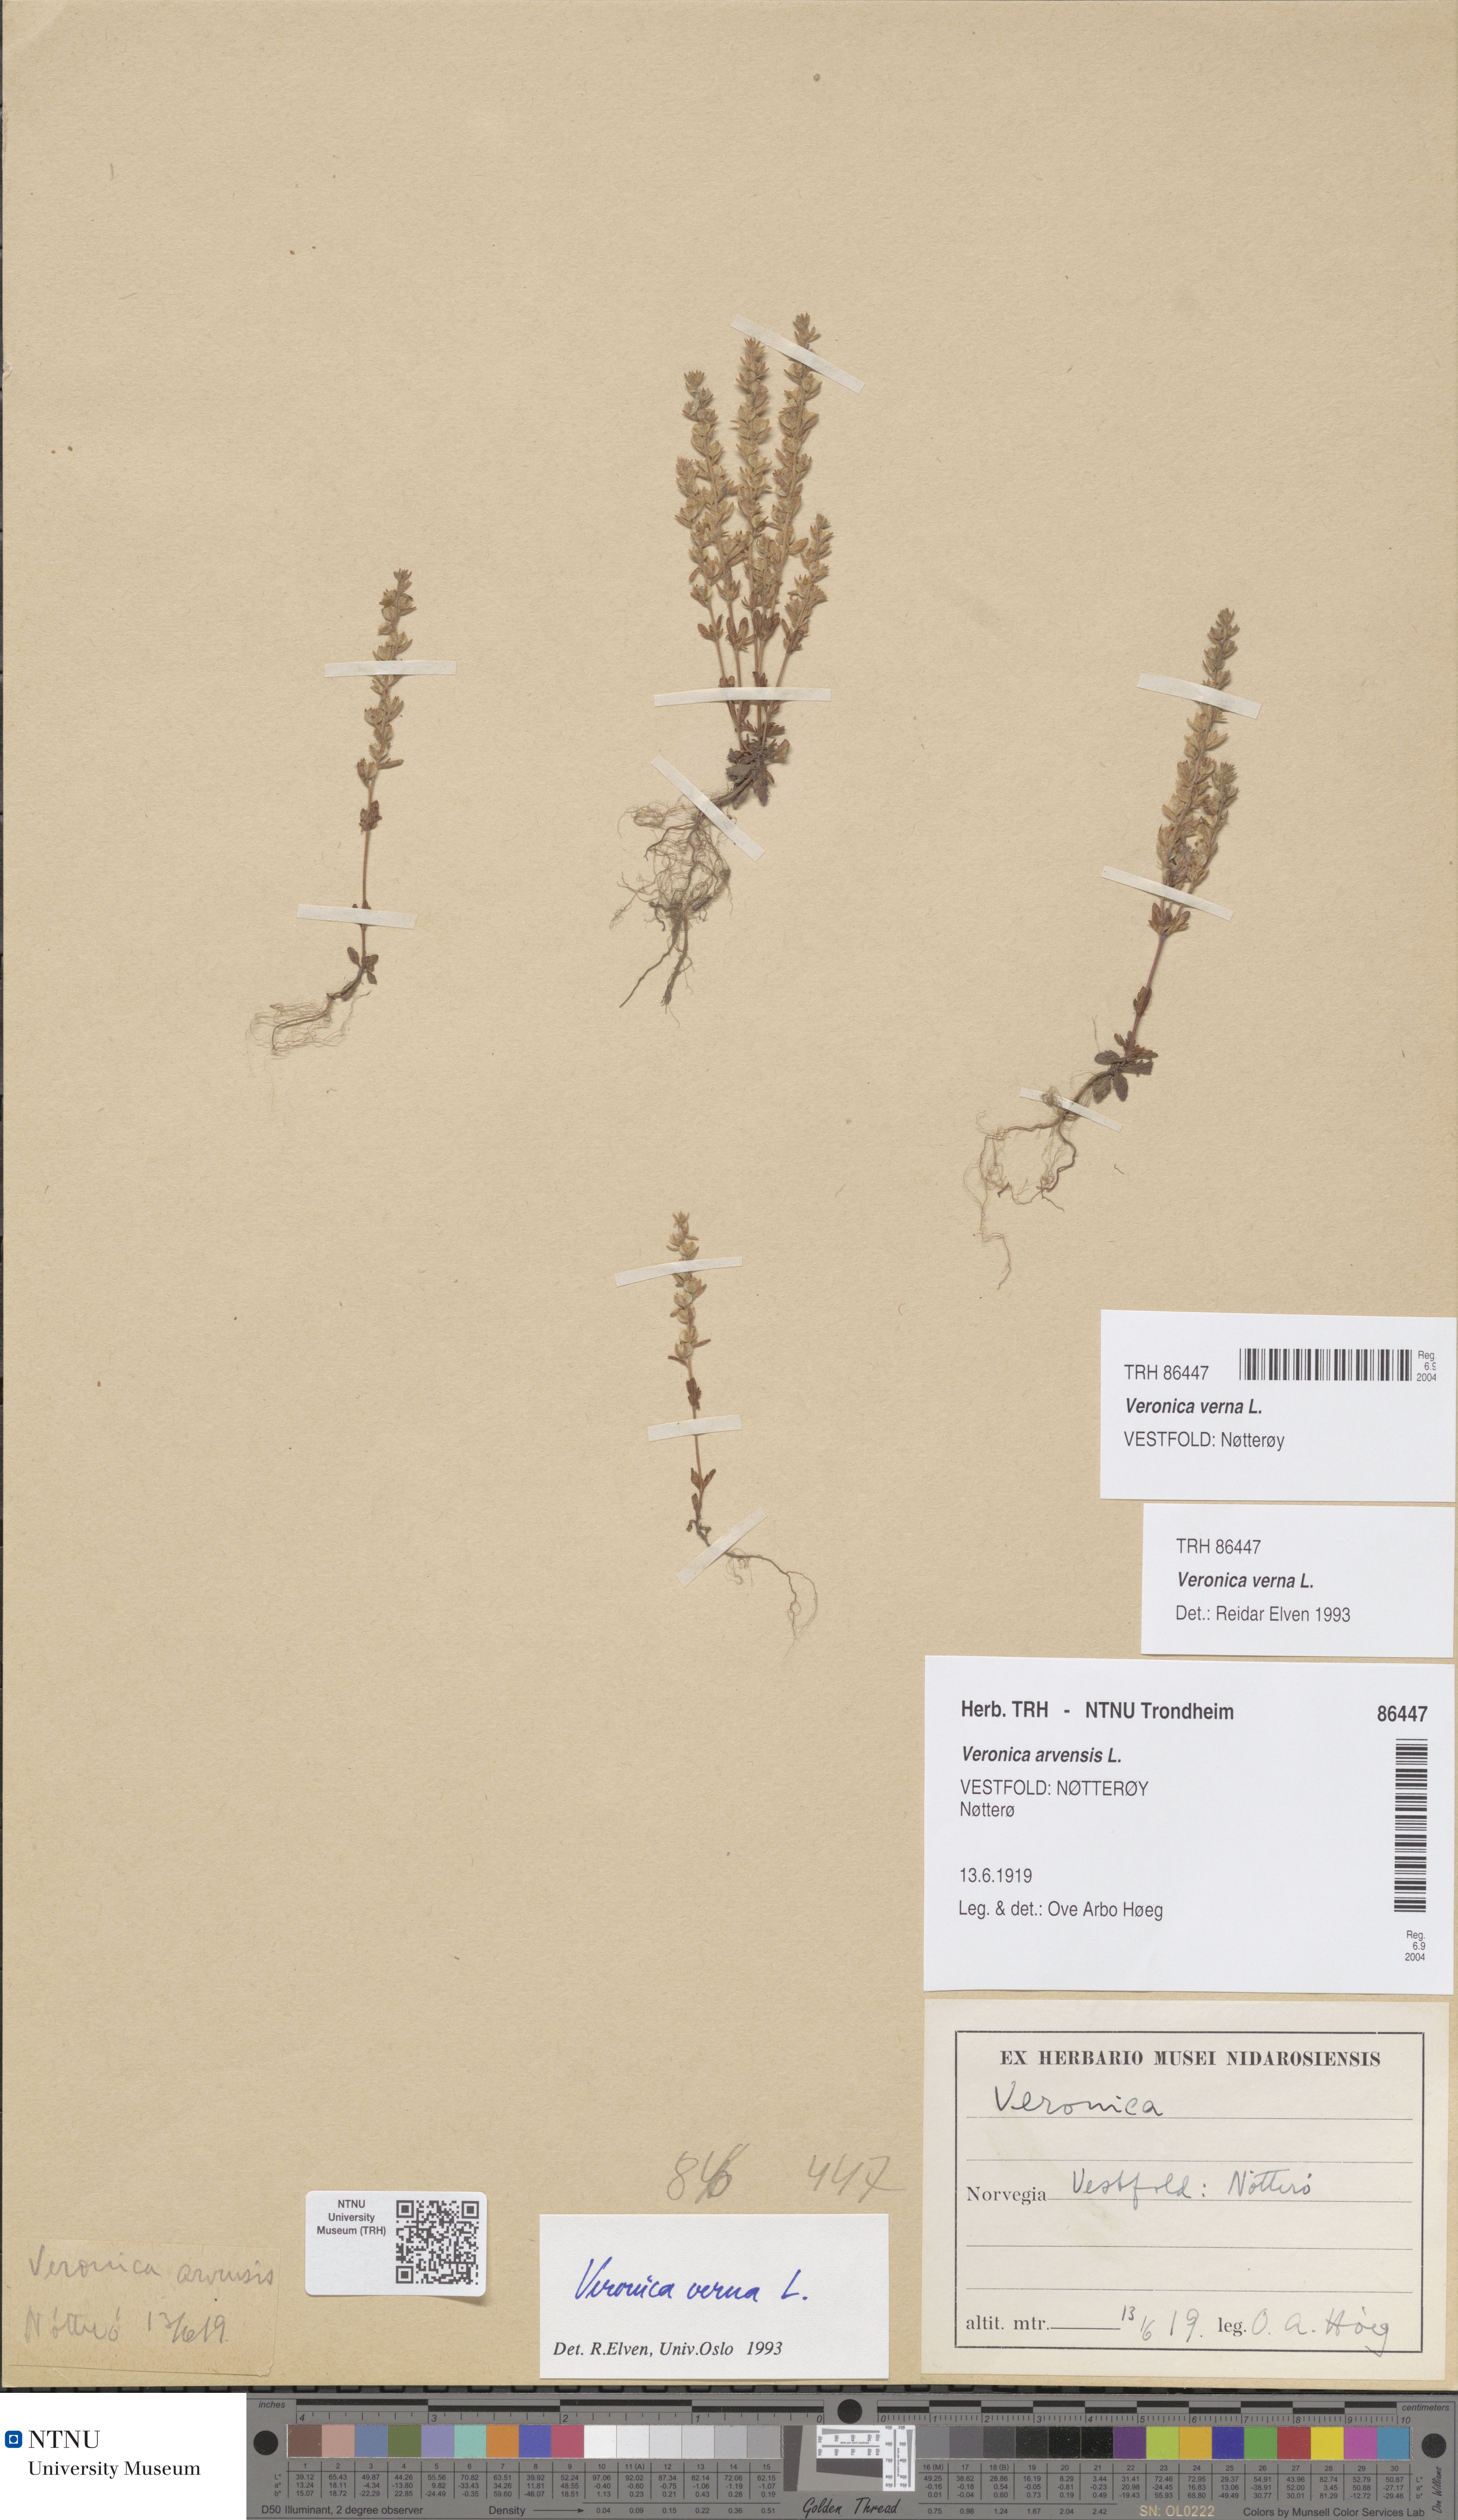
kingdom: Plantae
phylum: Tracheophyta
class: Magnoliopsida
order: Lamiales
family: Plantaginaceae
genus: Veronica
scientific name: Veronica verna
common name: Spring speedwell
